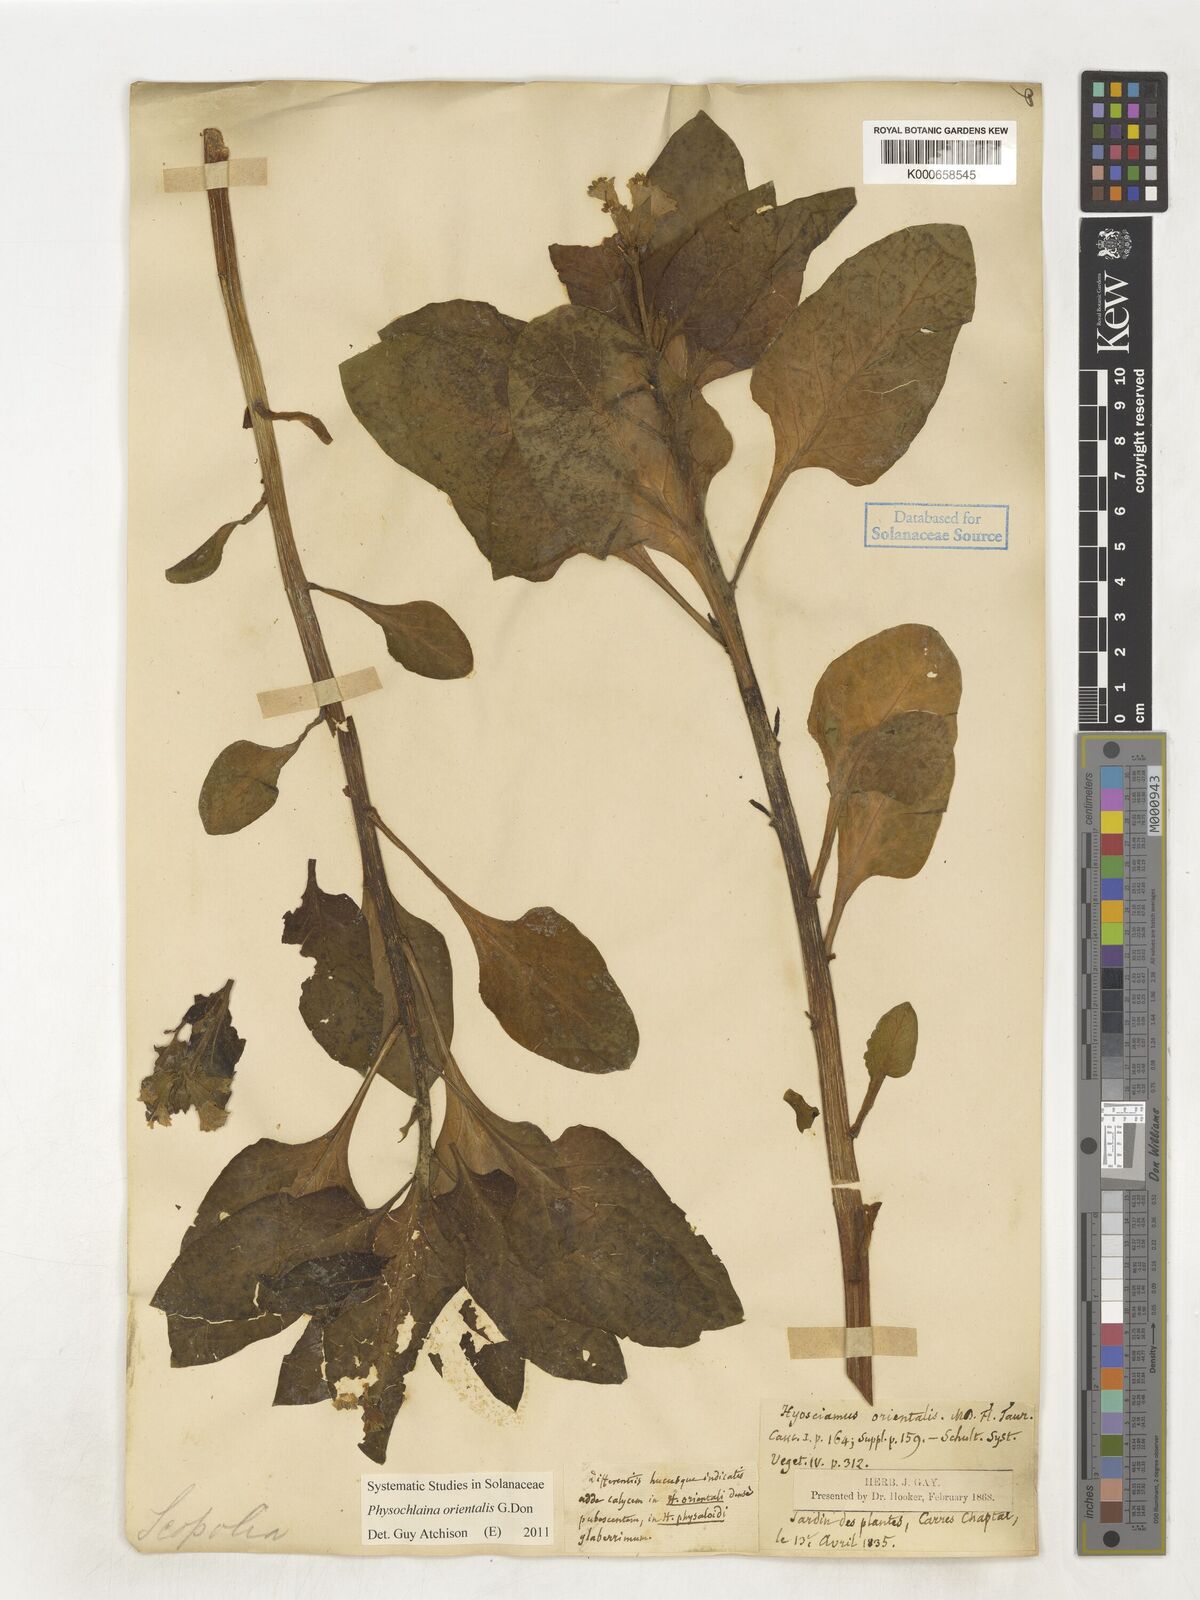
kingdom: Plantae
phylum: Tracheophyta
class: Magnoliopsida
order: Solanales
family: Solanaceae
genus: Physochlaina
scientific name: Physochlaina orientalis
